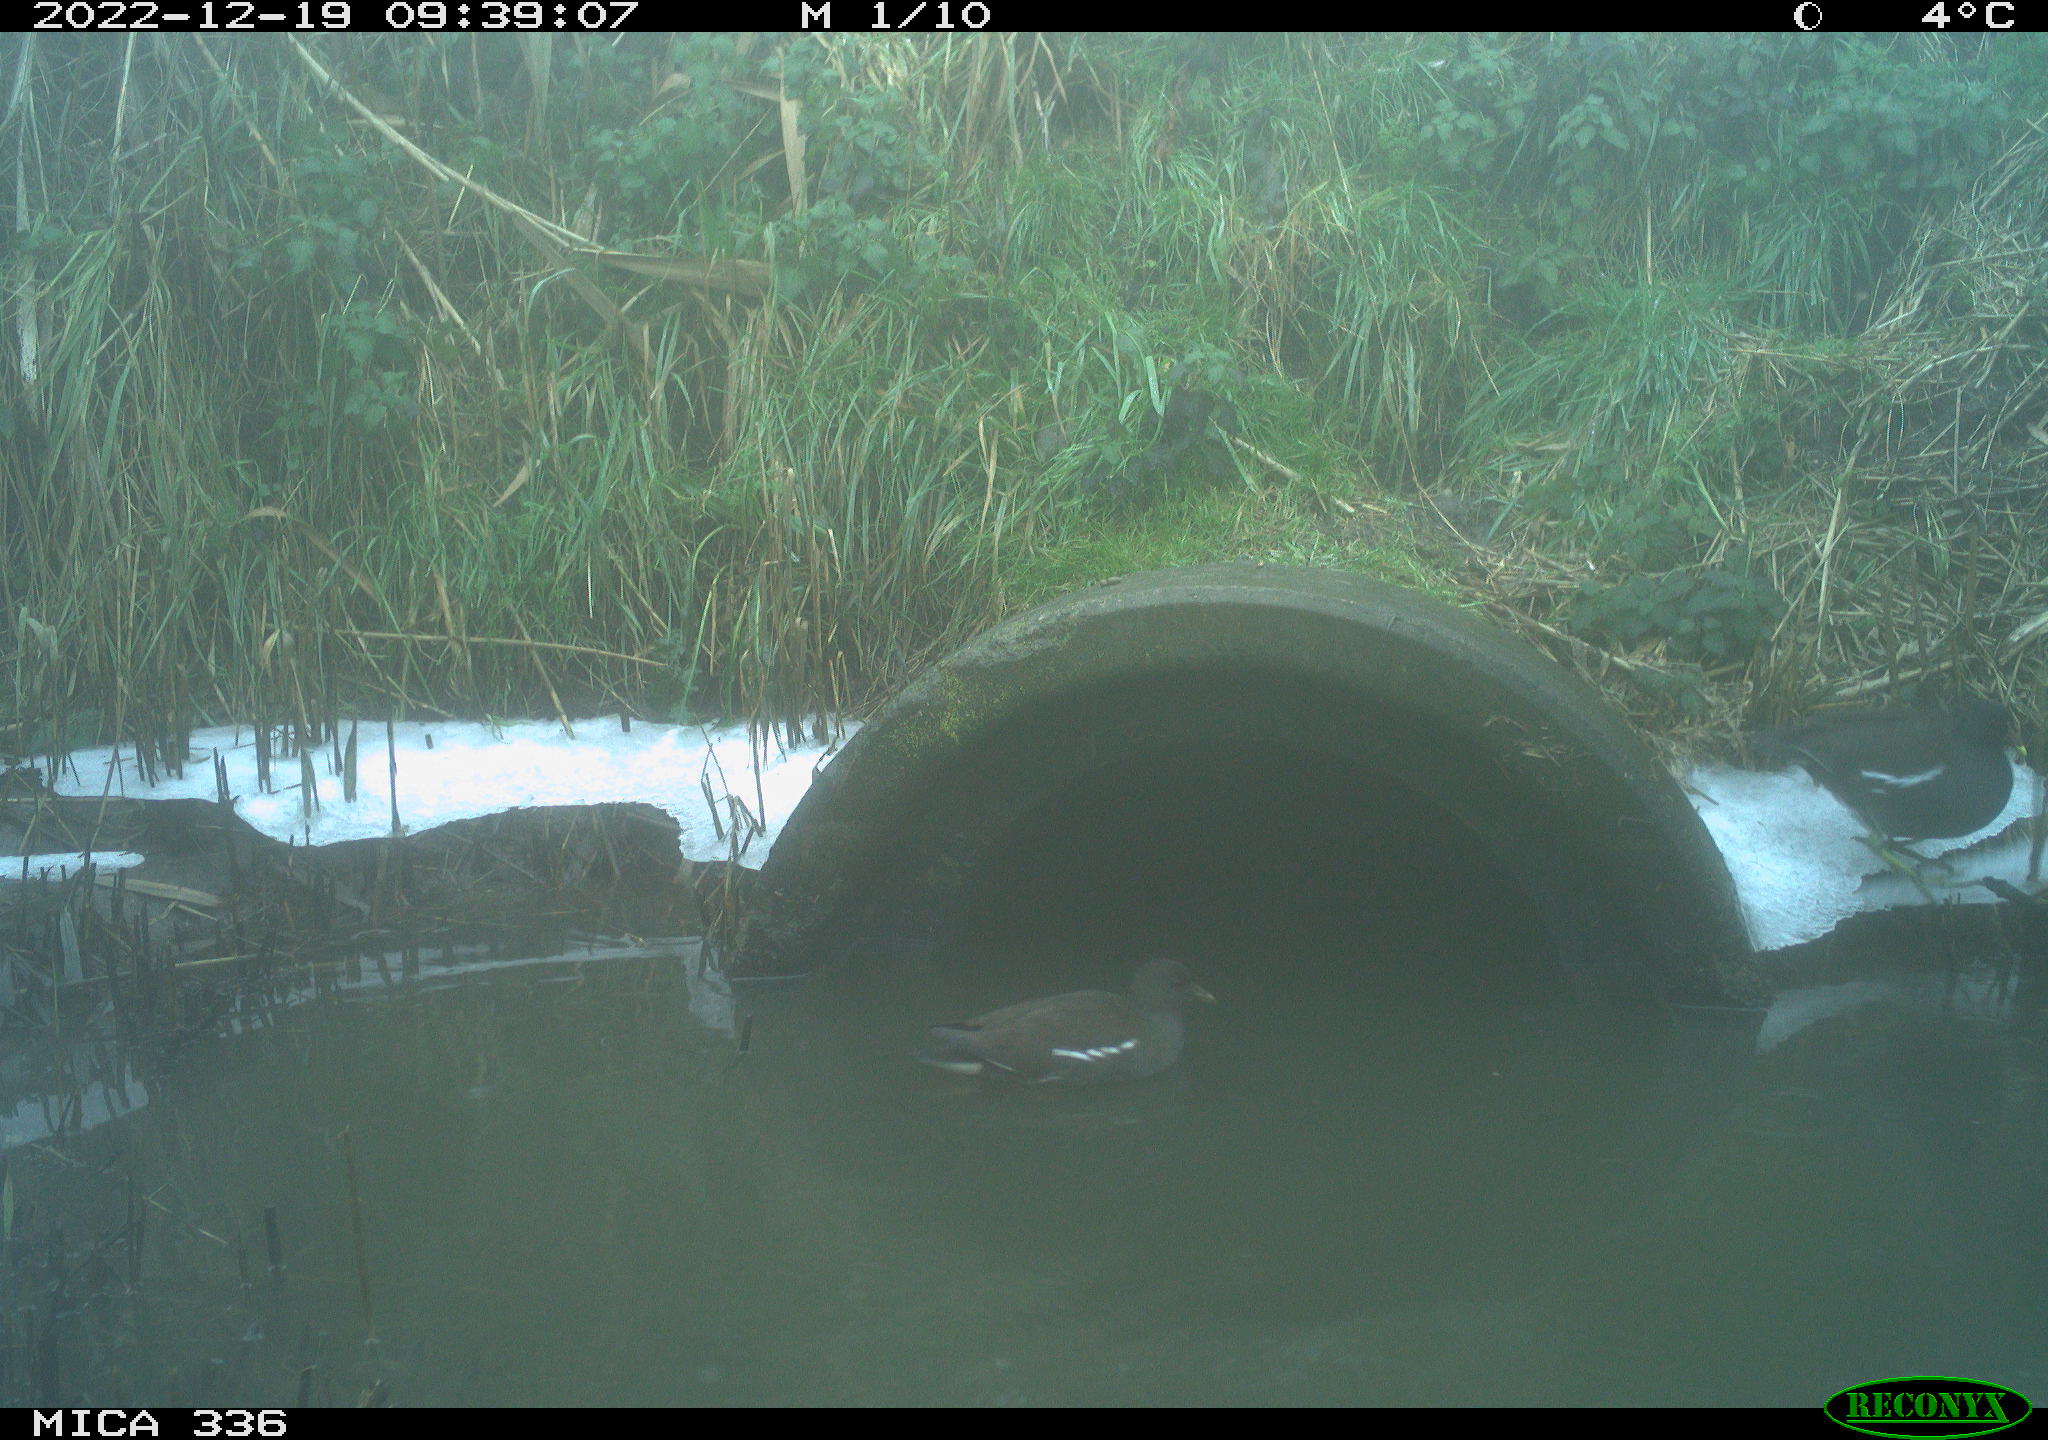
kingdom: Animalia
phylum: Chordata
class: Aves
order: Gruiformes
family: Rallidae
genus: Gallinula
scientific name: Gallinula chloropus
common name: Common moorhen
